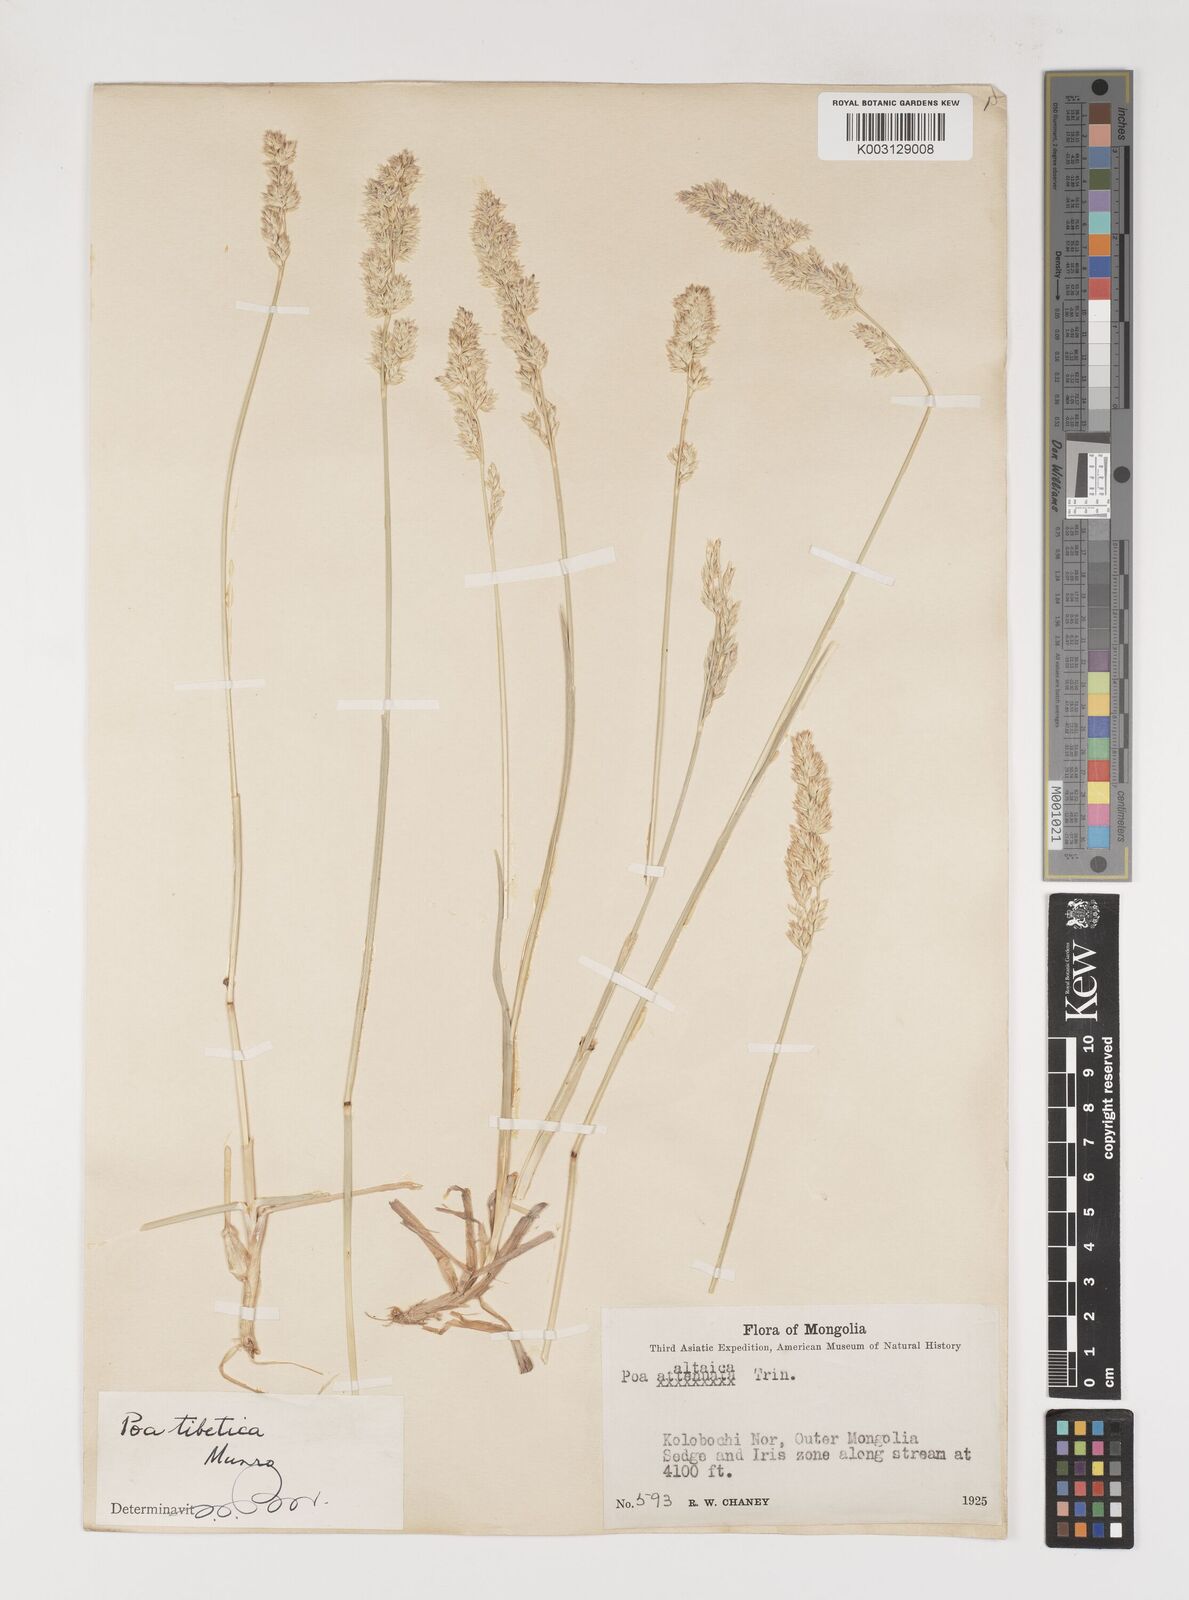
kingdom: Plantae
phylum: Tracheophyta
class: Liliopsida
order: Poales
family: Poaceae
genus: Arctopoa
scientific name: Arctopoa tibetica
